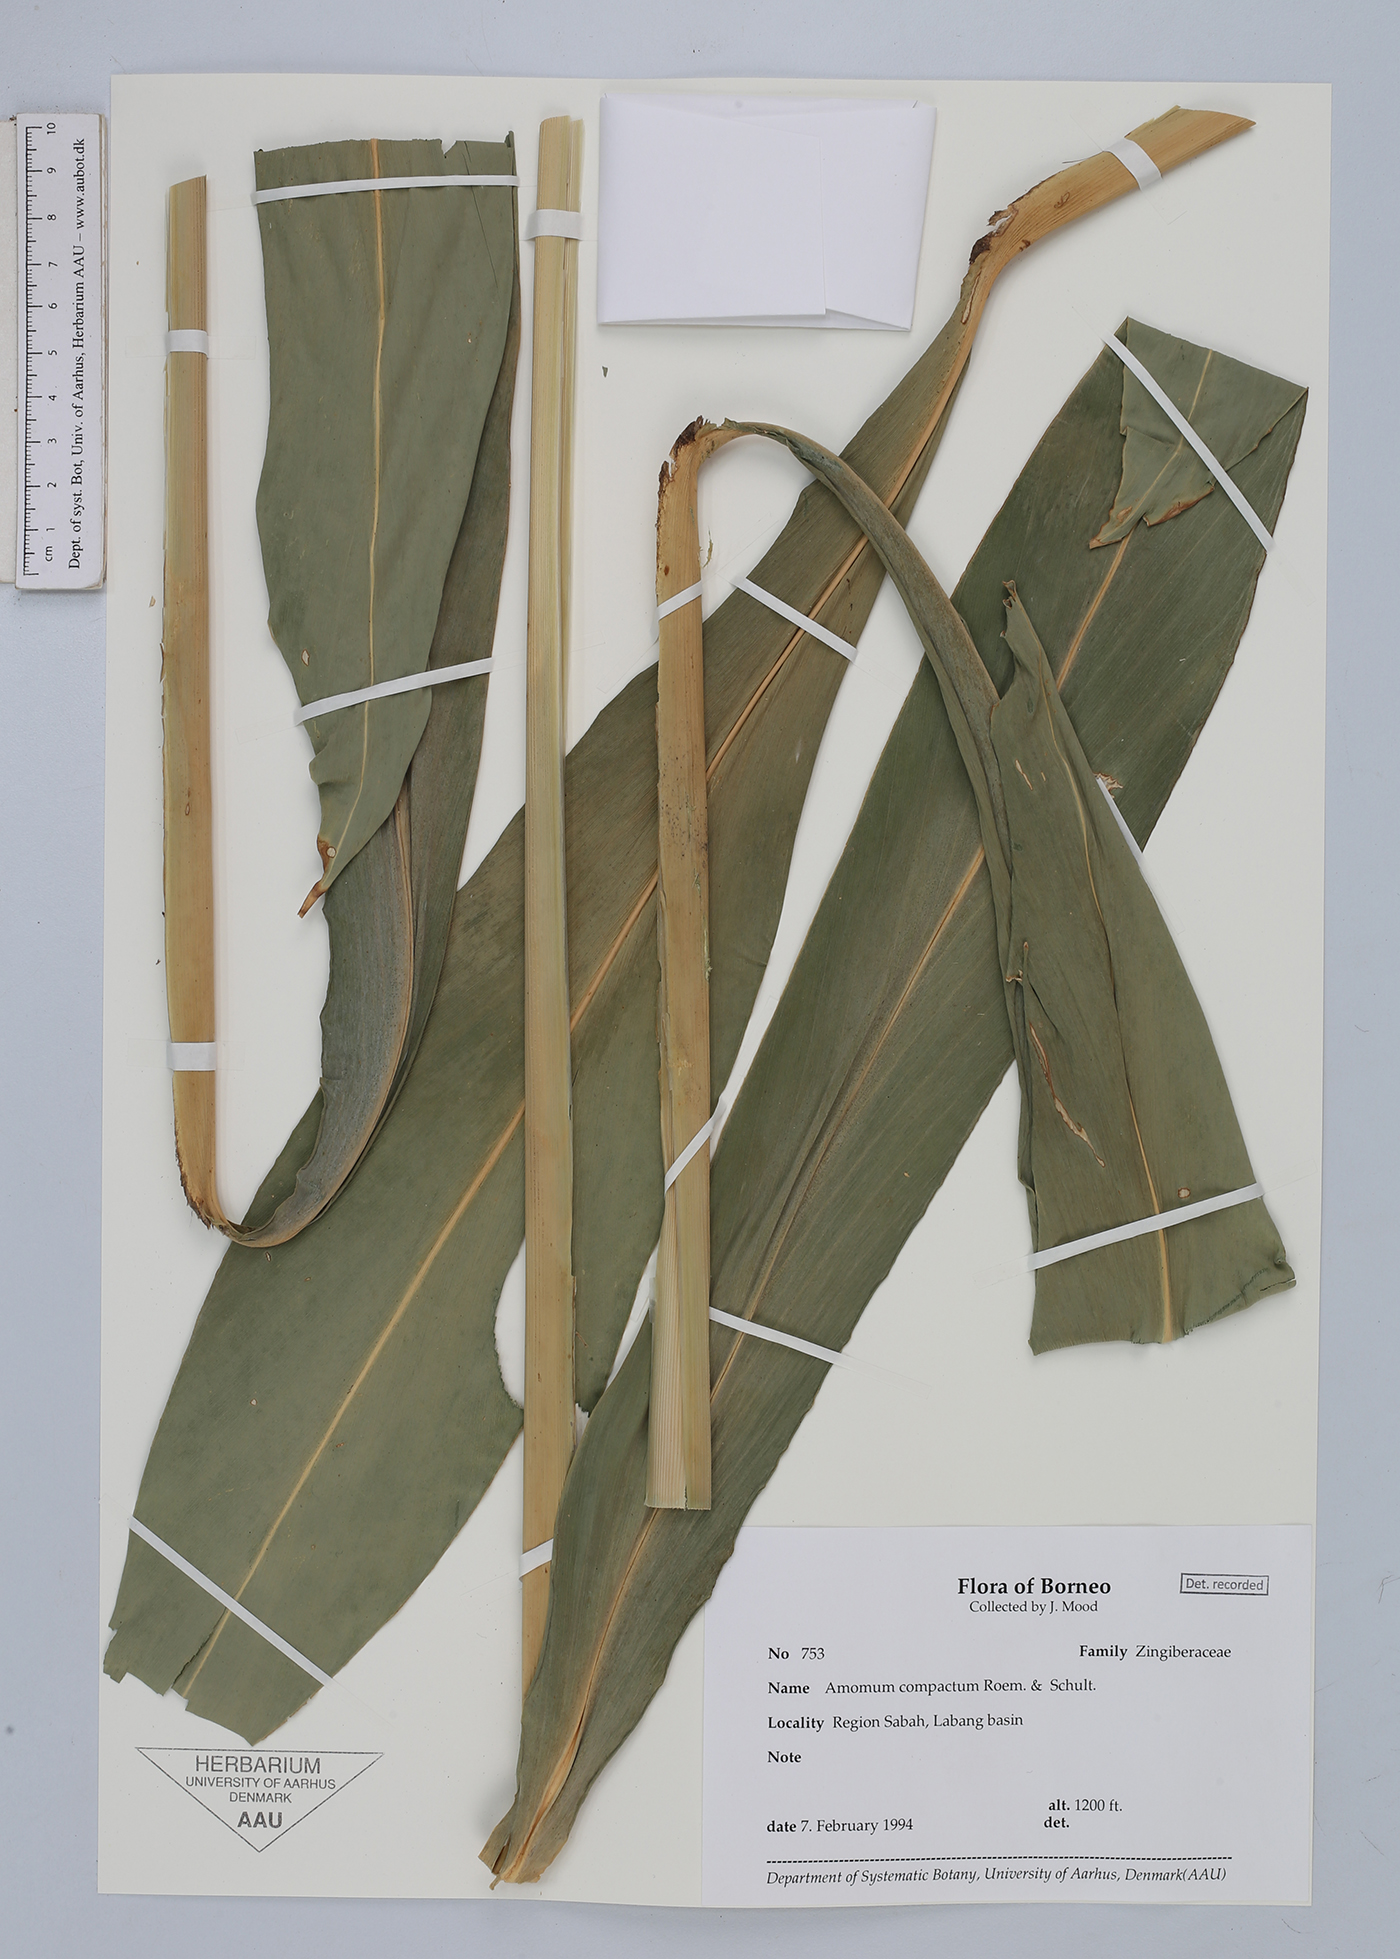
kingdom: Plantae
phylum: Tracheophyta
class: Liliopsida
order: Zingiberales
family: Zingiberaceae
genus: Amomum
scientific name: Amomum compactum
